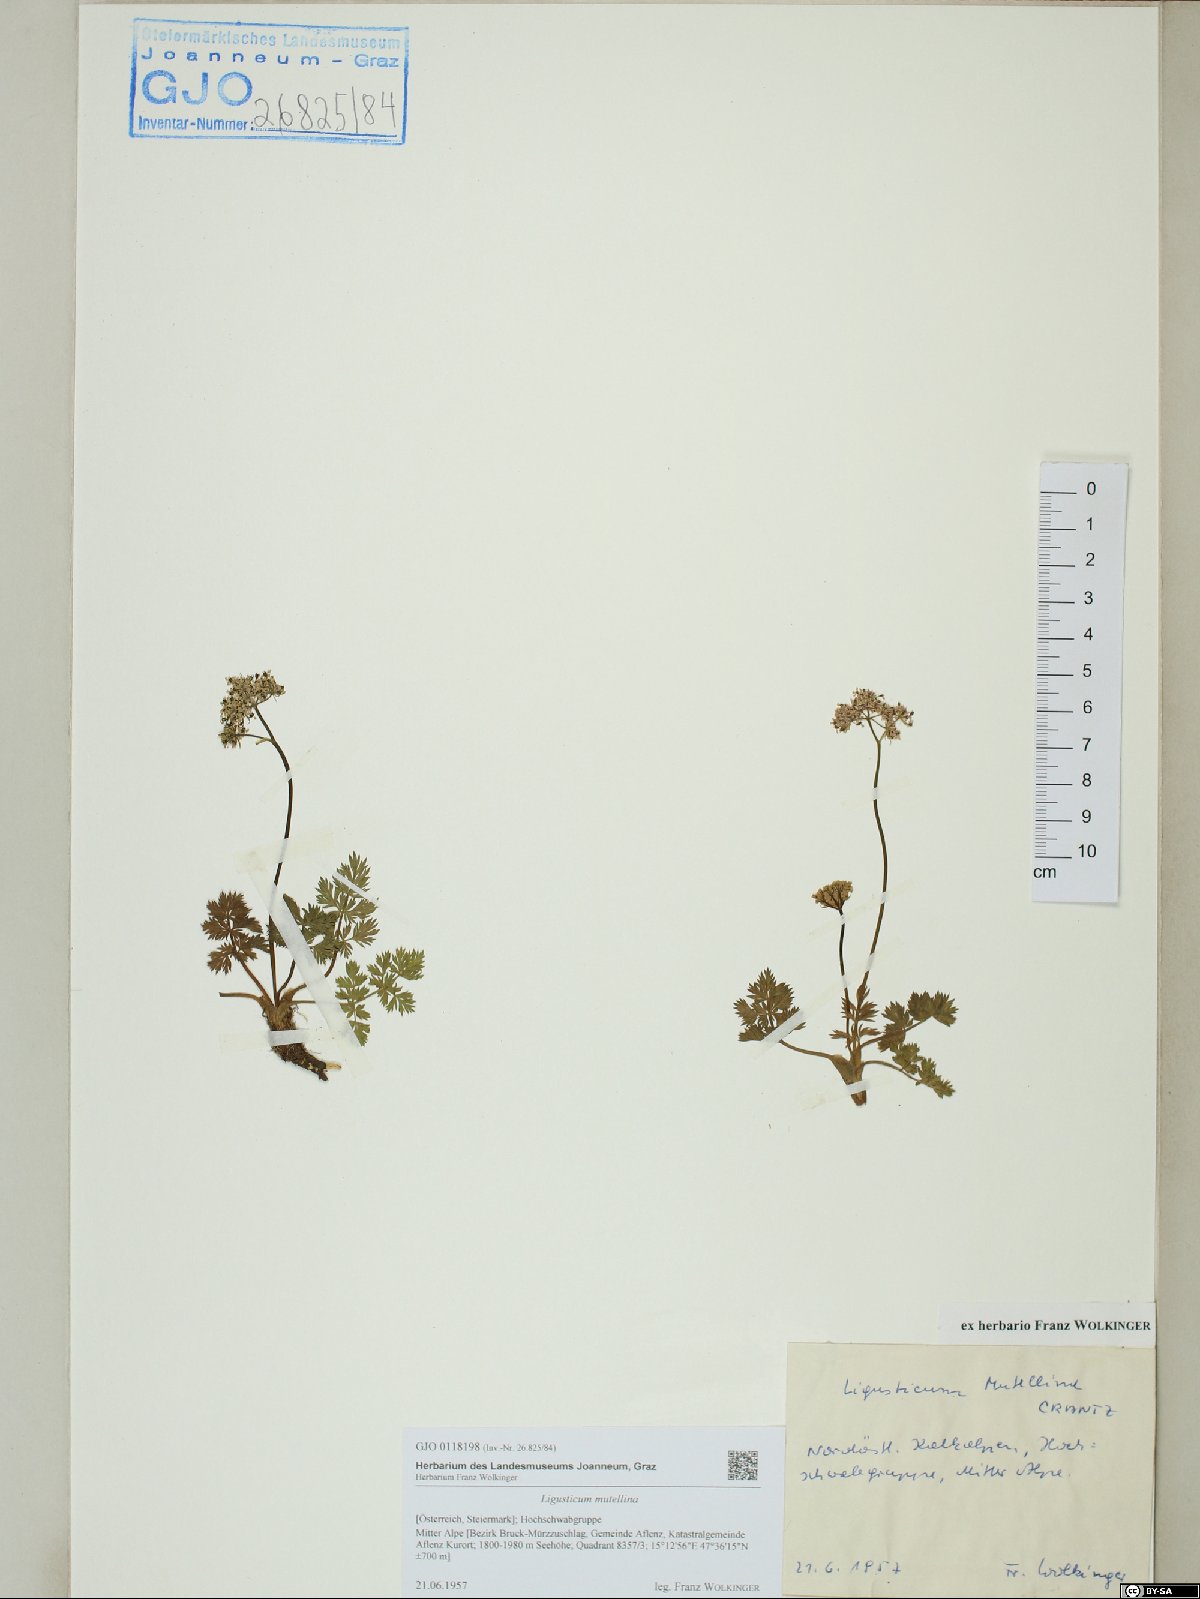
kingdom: Plantae
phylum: Tracheophyta
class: Magnoliopsida
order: Apiales
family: Apiaceae
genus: Mutellina
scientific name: Mutellina adonidifolia
